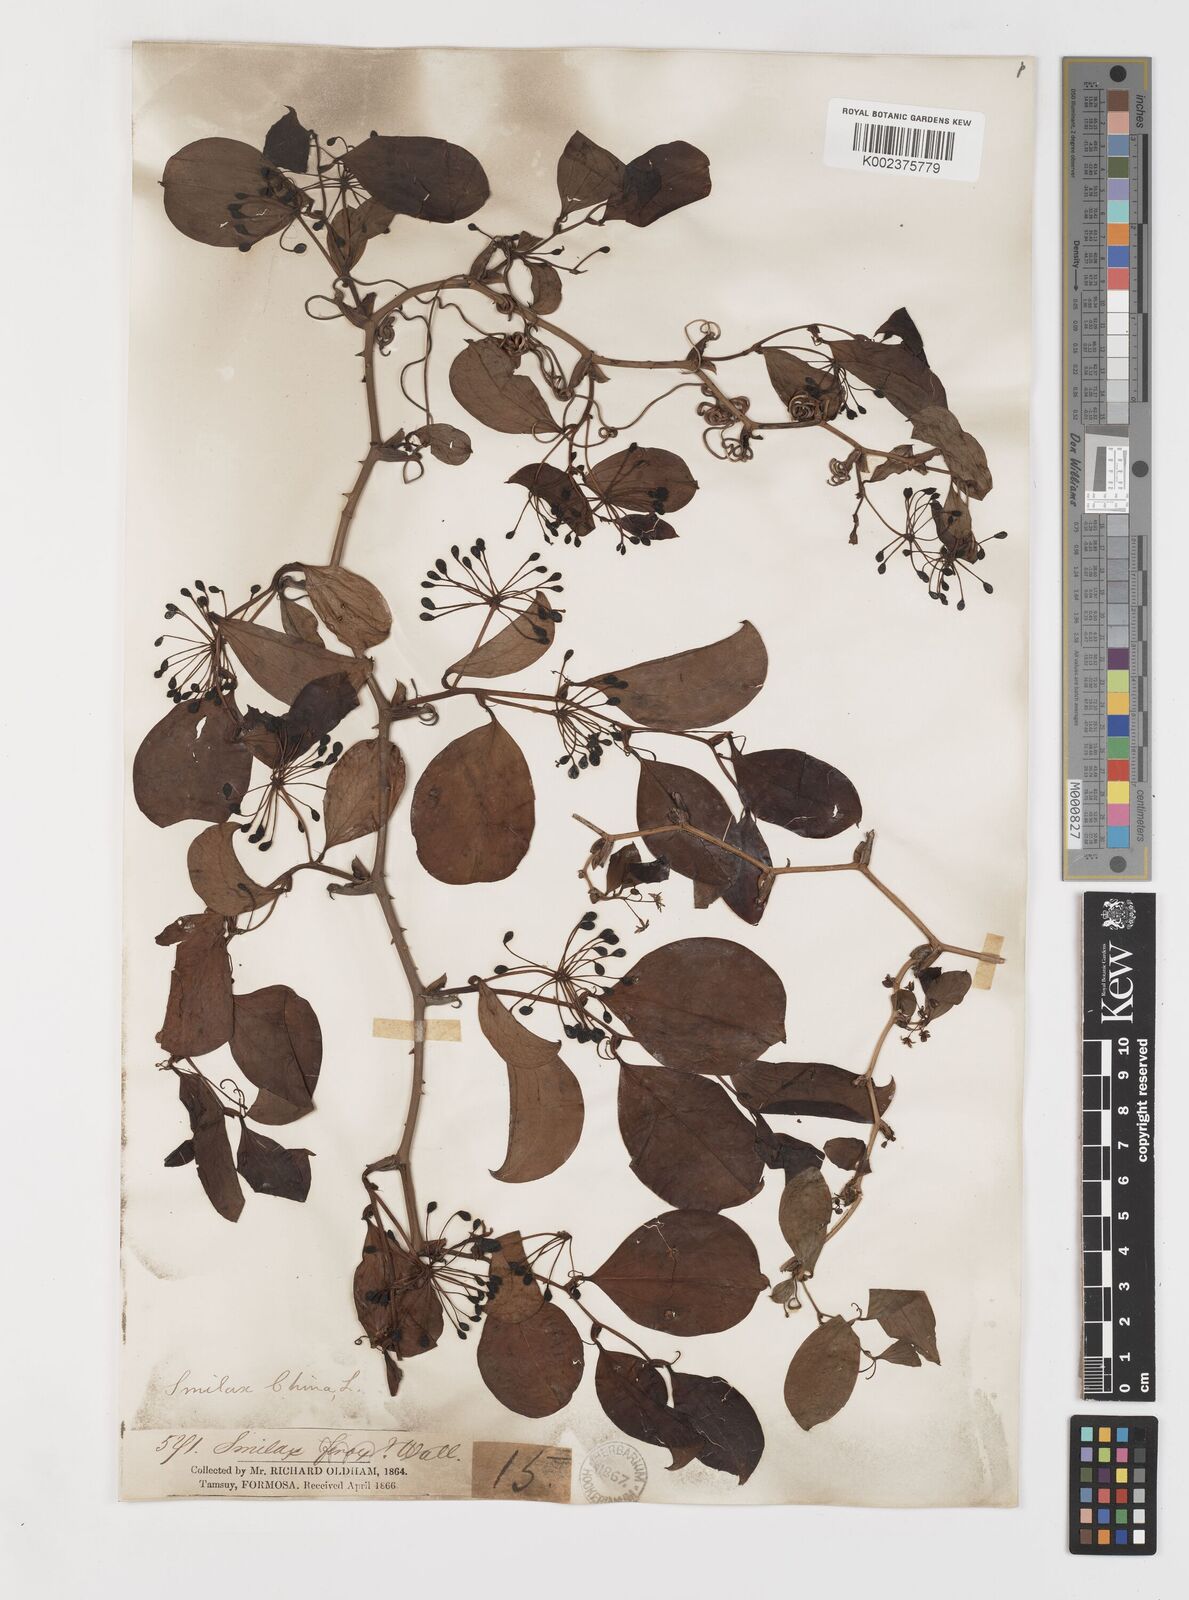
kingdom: Plantae
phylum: Tracheophyta
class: Liliopsida
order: Liliales
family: Smilacaceae
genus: Smilax
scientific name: Smilax china
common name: Chinaroot
